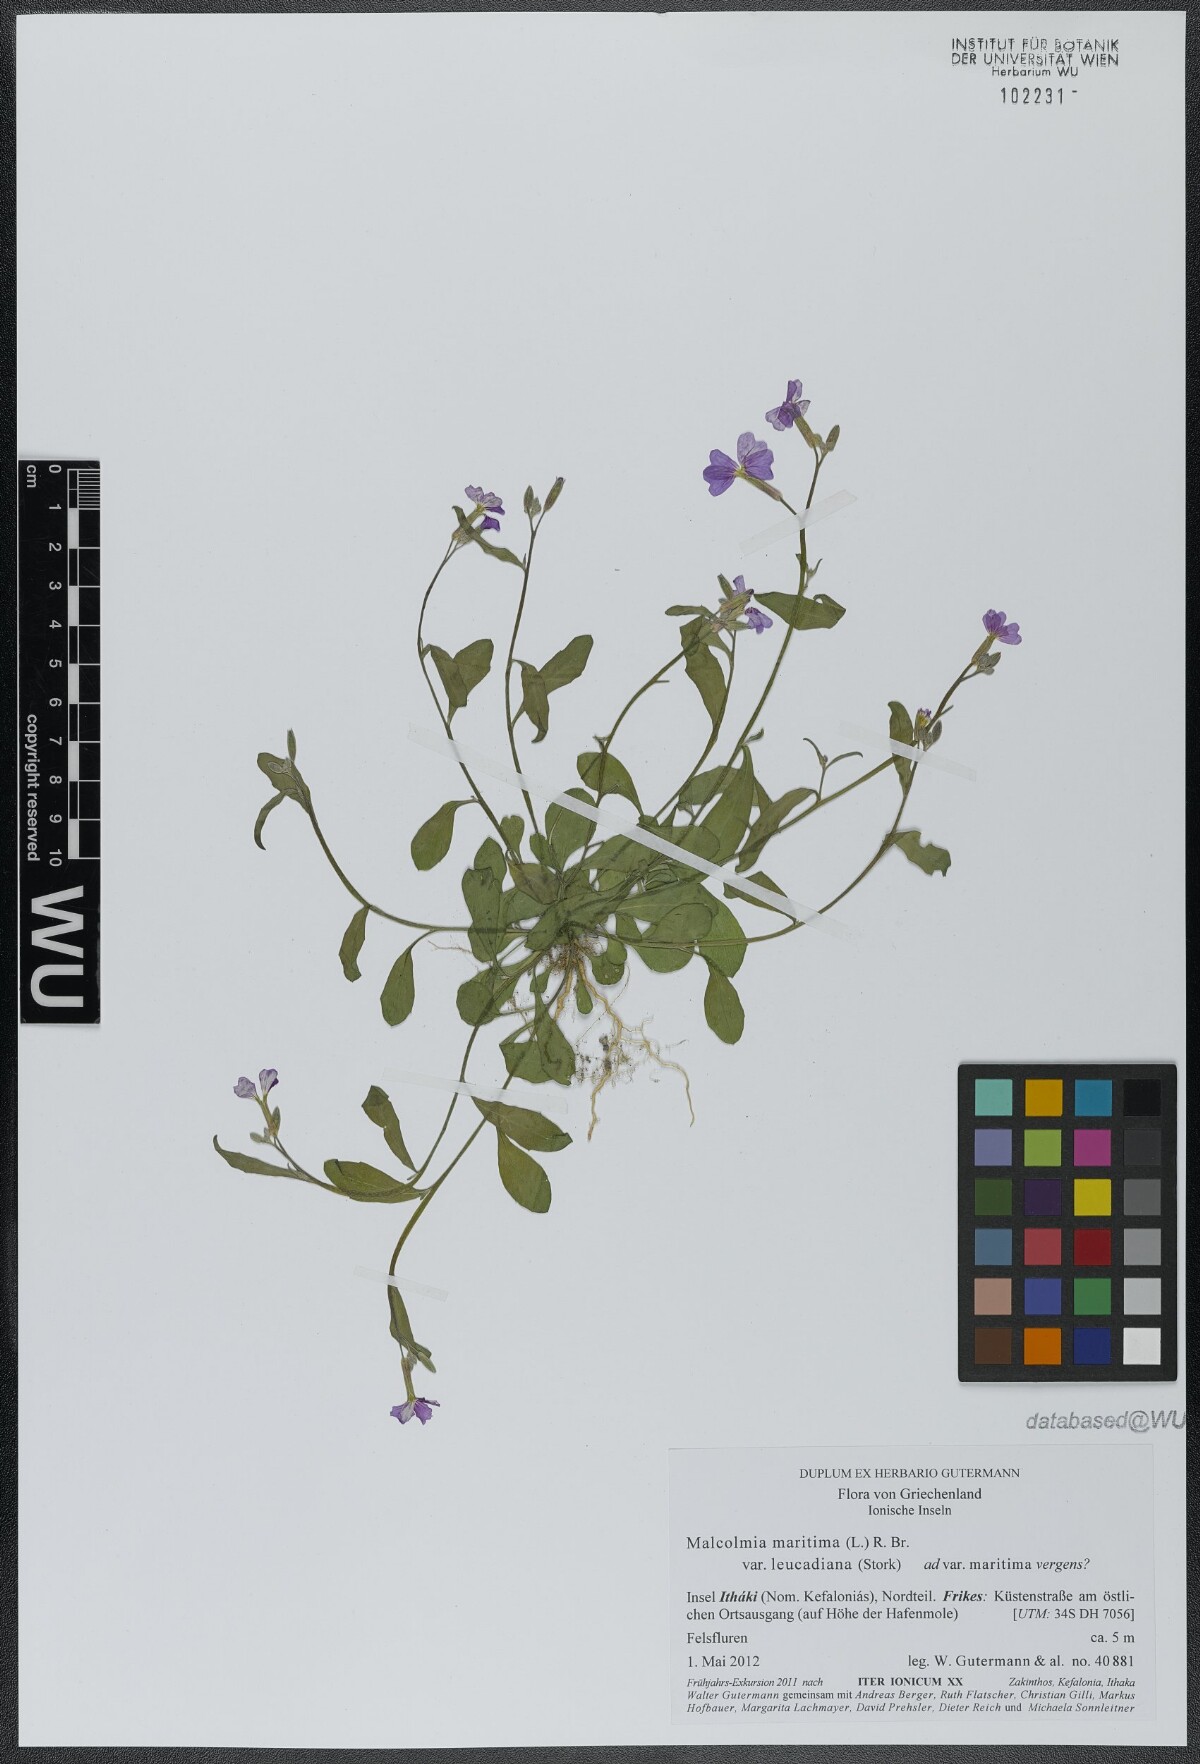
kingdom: Plantae
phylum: Tracheophyta
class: Magnoliopsida
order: Brassicales
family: Brassicaceae
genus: Malcolmia
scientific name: Malcolmia maritima
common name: Virginia stock
